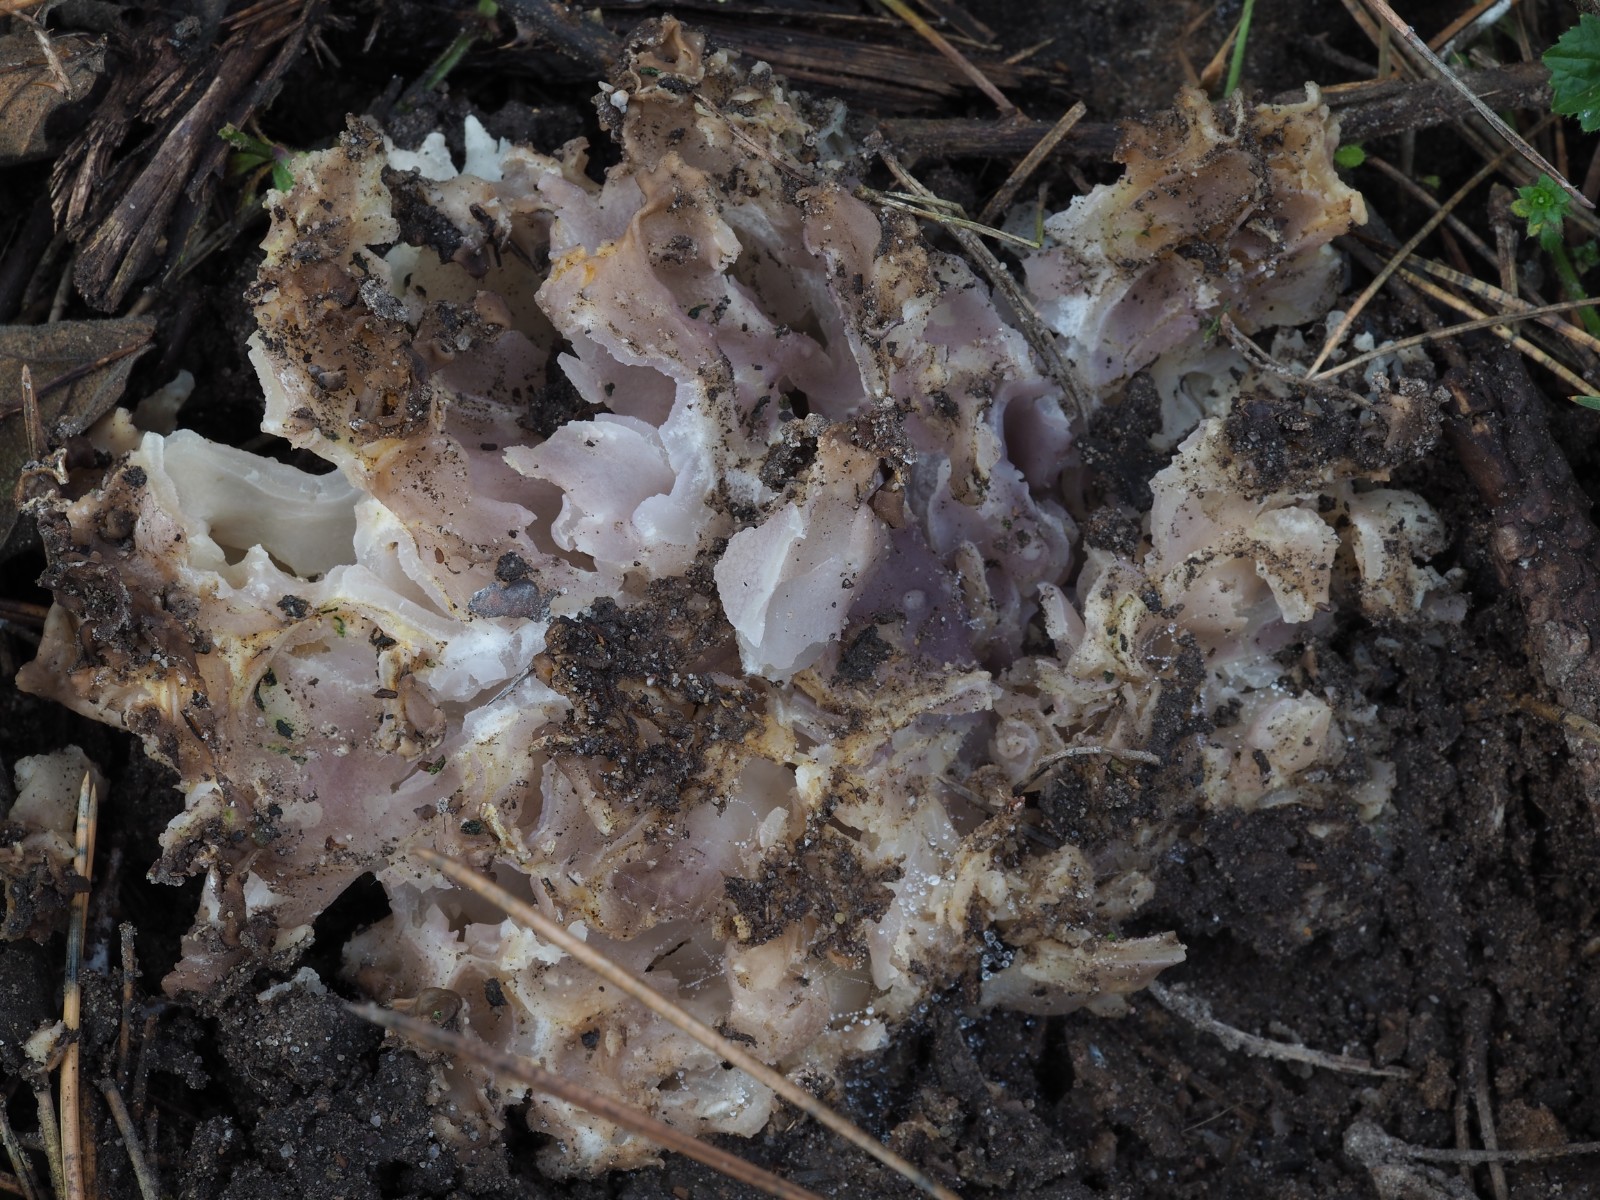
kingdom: Fungi
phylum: Ascomycota
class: Pezizomycetes
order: Pezizales
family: Pezizaceae
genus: Daleomyces
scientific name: Daleomyces phillipsii
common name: blomkåls-bægersvamp
